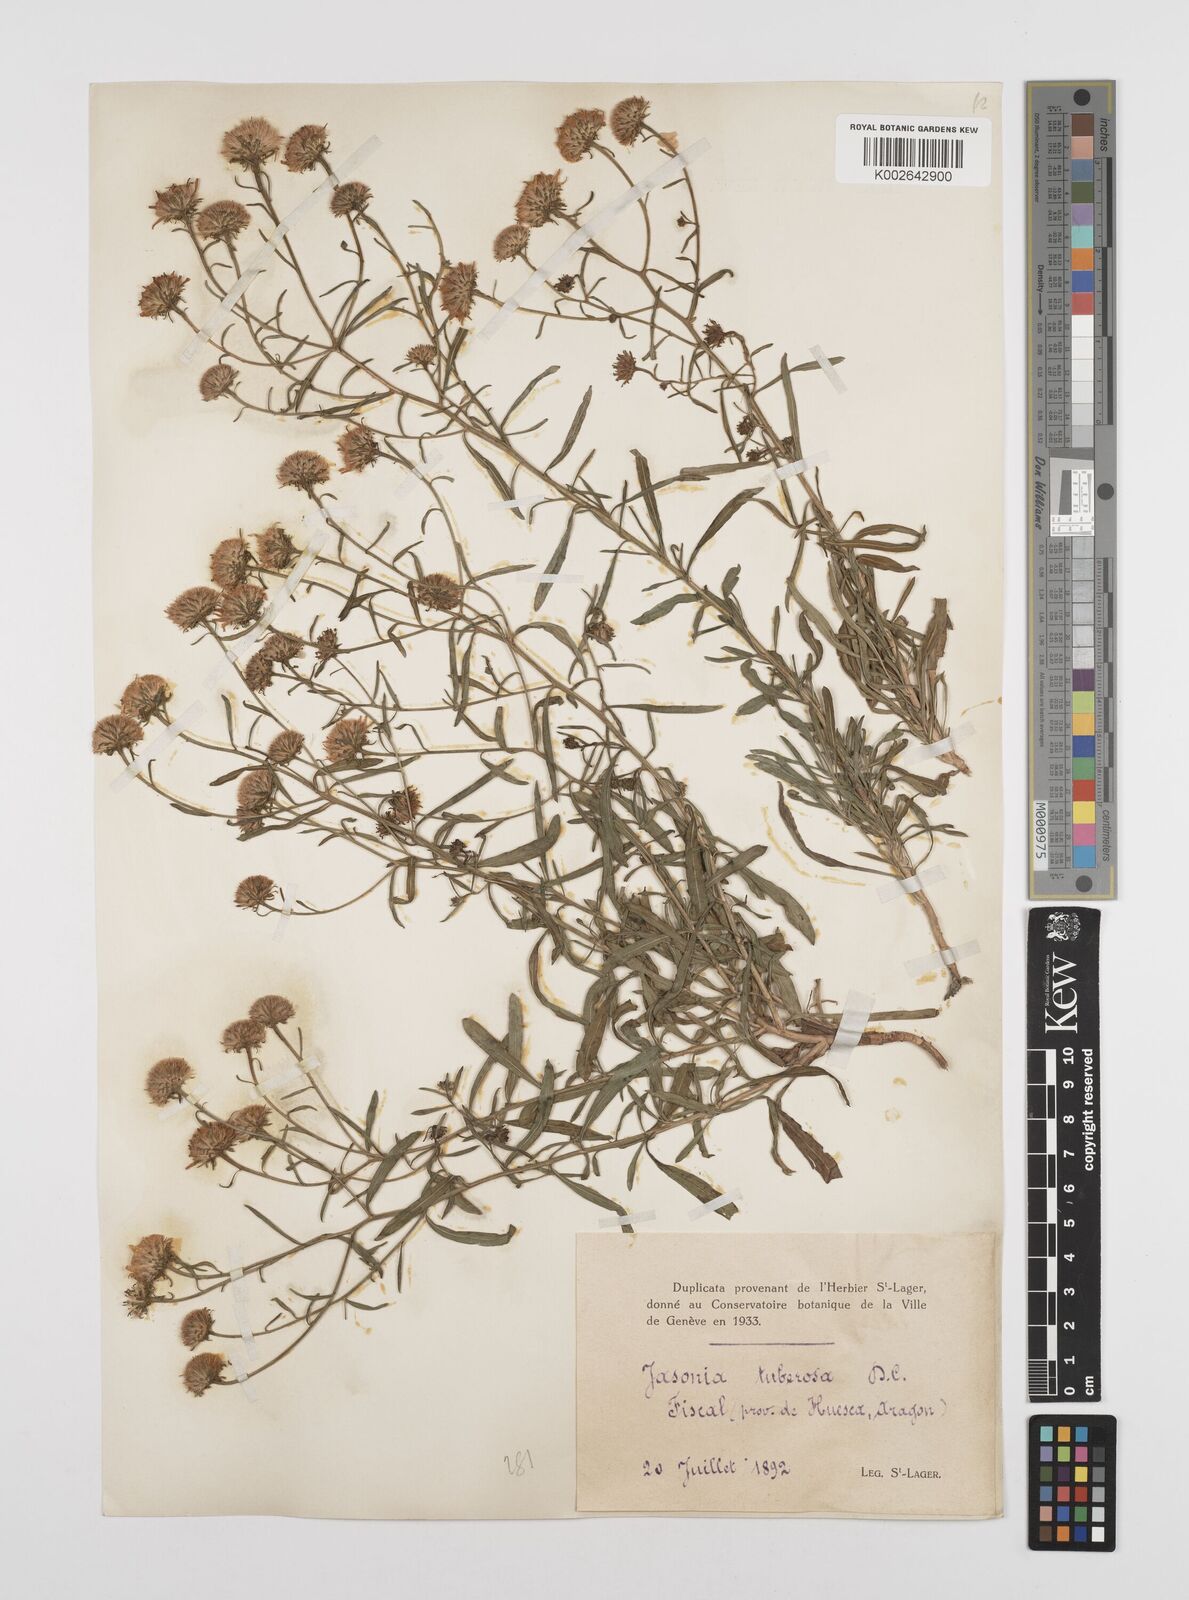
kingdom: Plantae
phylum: Tracheophyta
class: Magnoliopsida
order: Asterales
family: Asteraceae
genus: Jasonia
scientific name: Jasonia tuberosa
